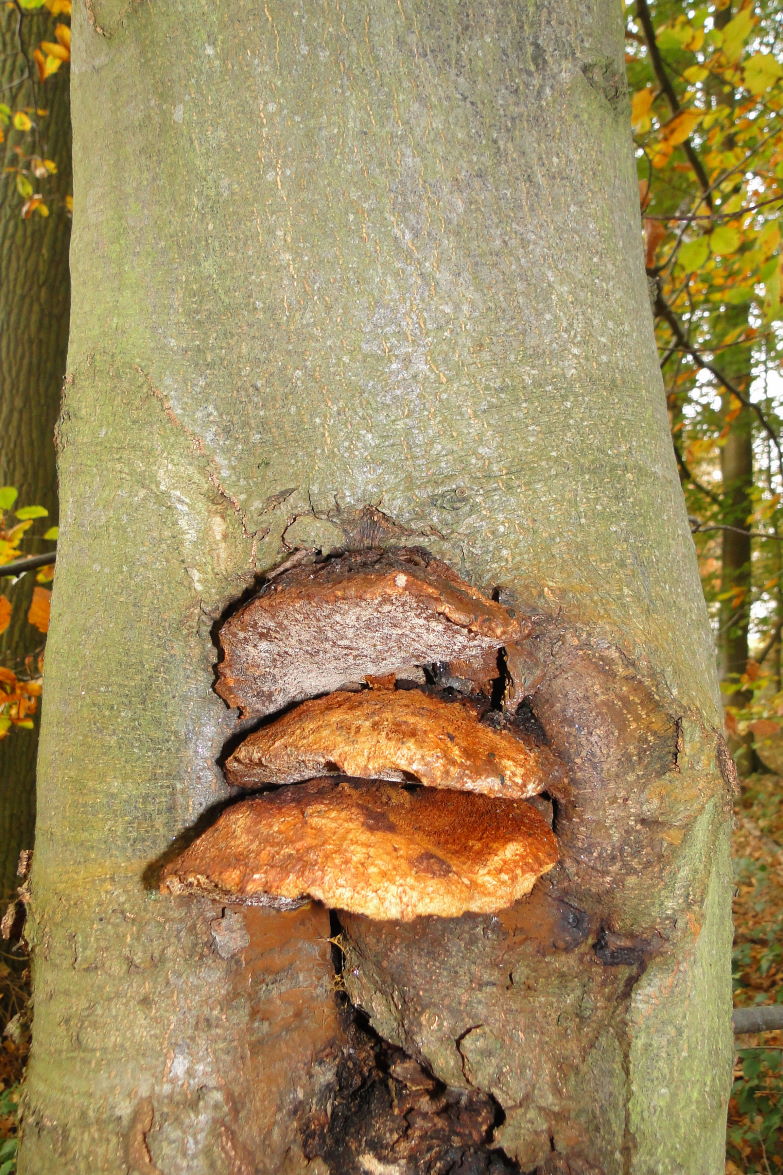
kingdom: Fungi
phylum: Basidiomycota
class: Agaricomycetes
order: Hymenochaetales
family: Hymenochaetaceae
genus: Inonotus
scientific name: Inonotus cuticularis
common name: kroghåret spejlporesvamp
